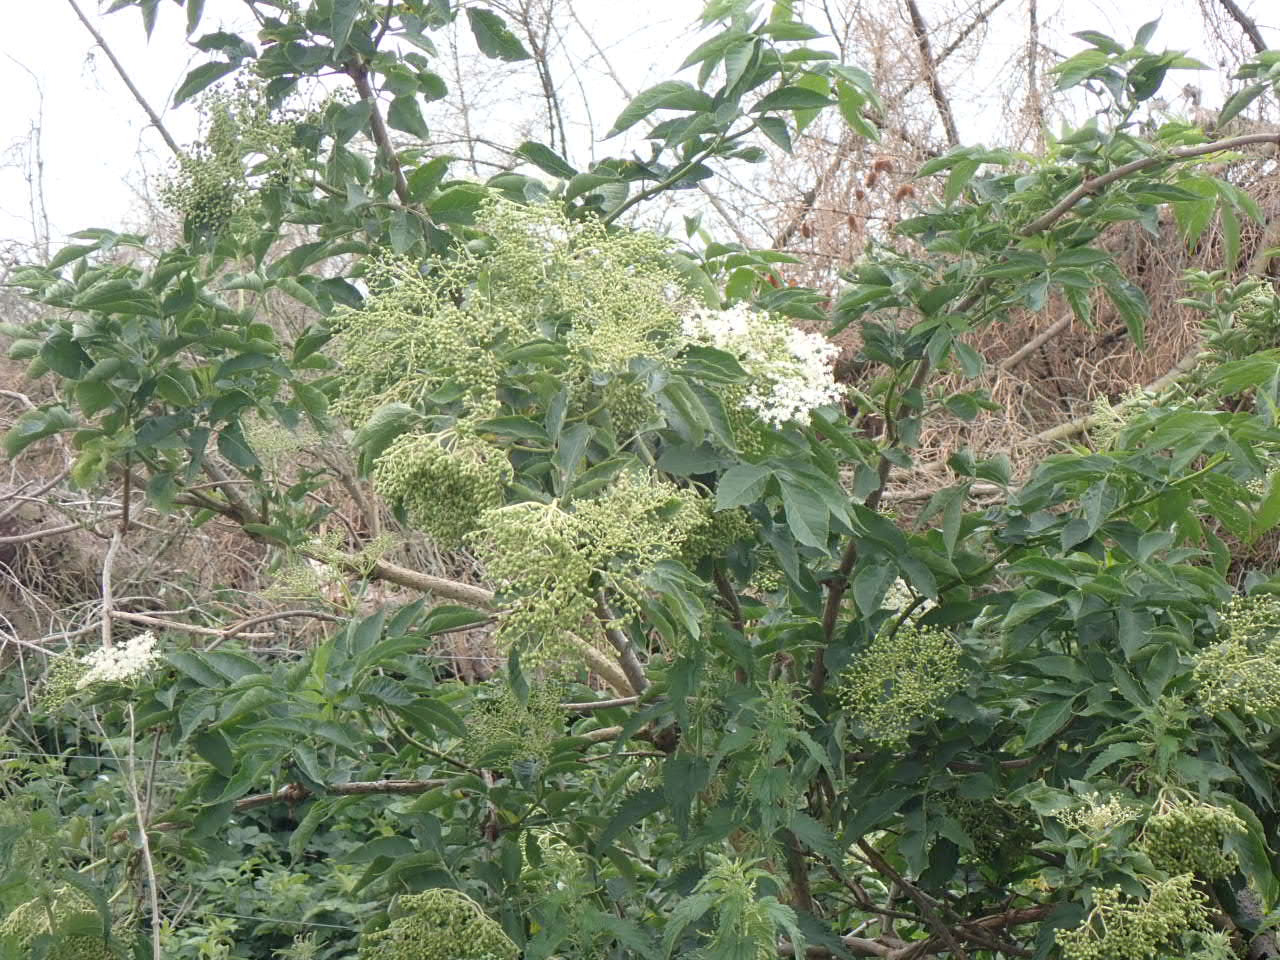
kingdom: Plantae
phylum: Tracheophyta
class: Magnoliopsida
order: Dipsacales
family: Viburnaceae
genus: Sambucus
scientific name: Sambucus nigra
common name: Almindelig hyld
